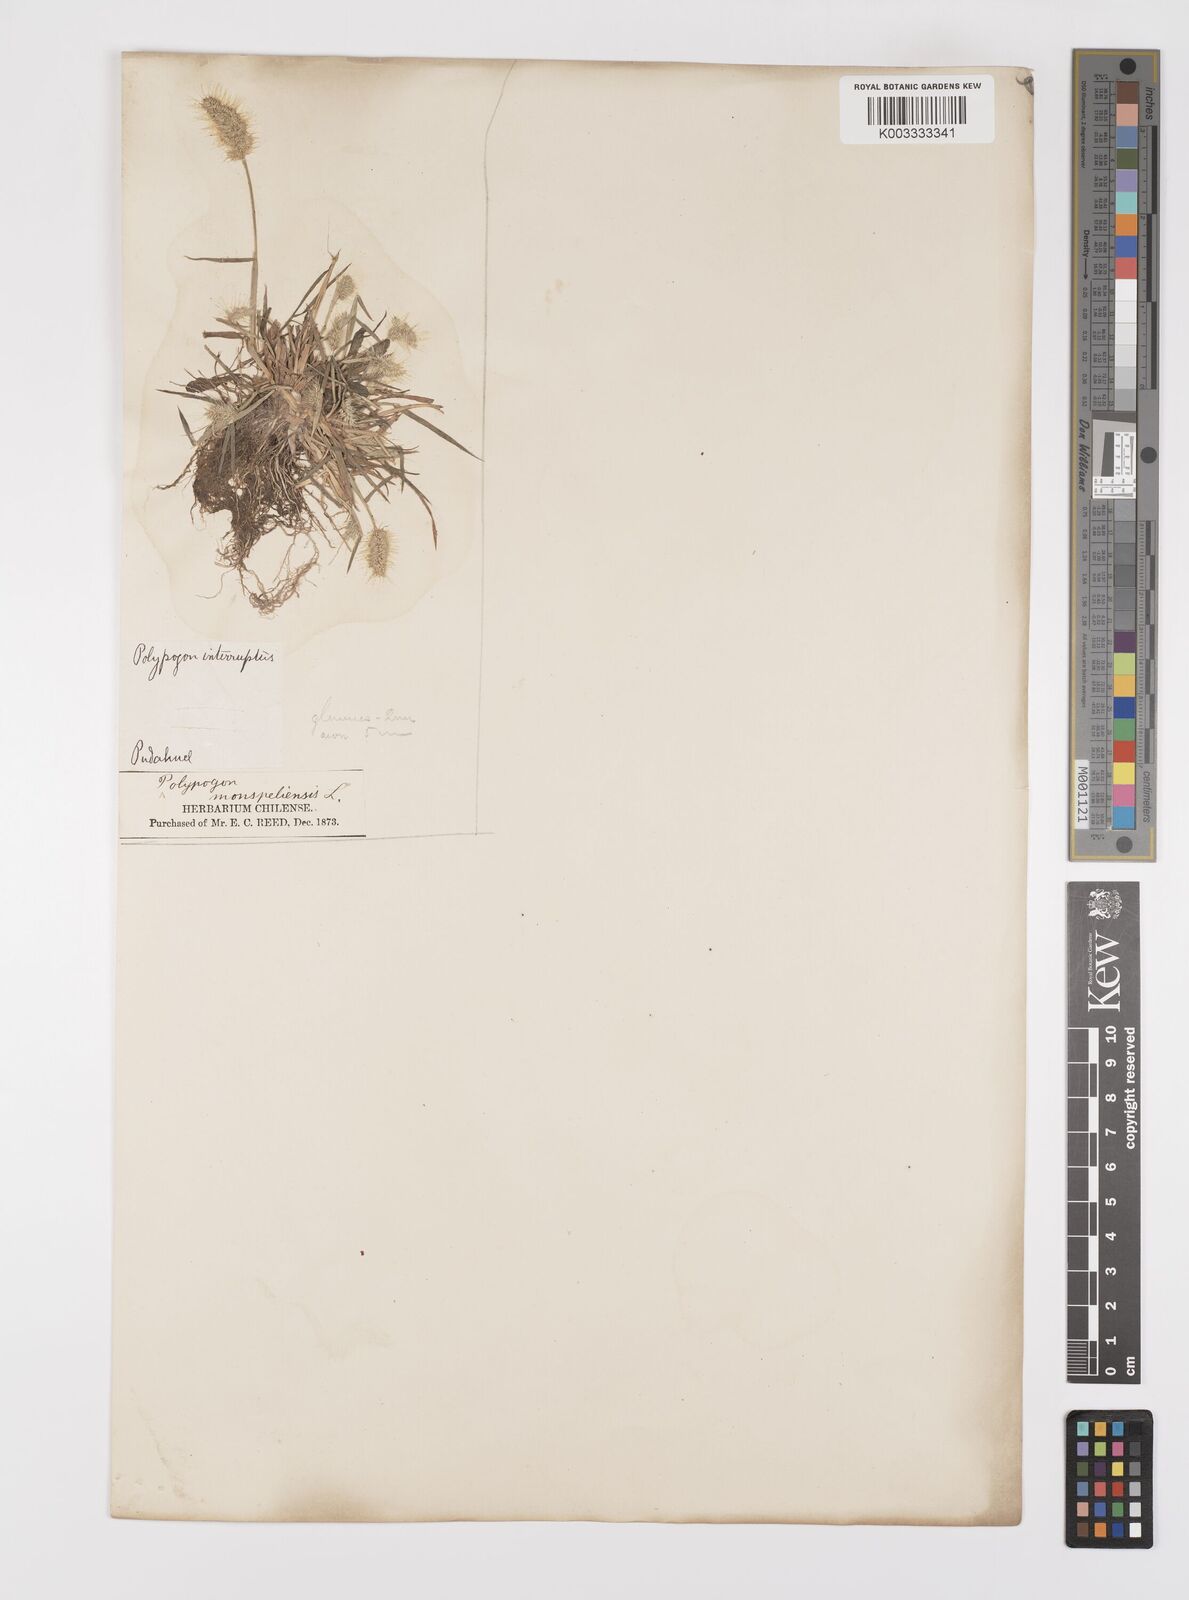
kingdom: Plantae
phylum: Tracheophyta
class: Liliopsida
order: Poales
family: Poaceae
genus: Polypogon
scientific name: Polypogon monspeliensis
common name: Annual rabbitsfoot grass
